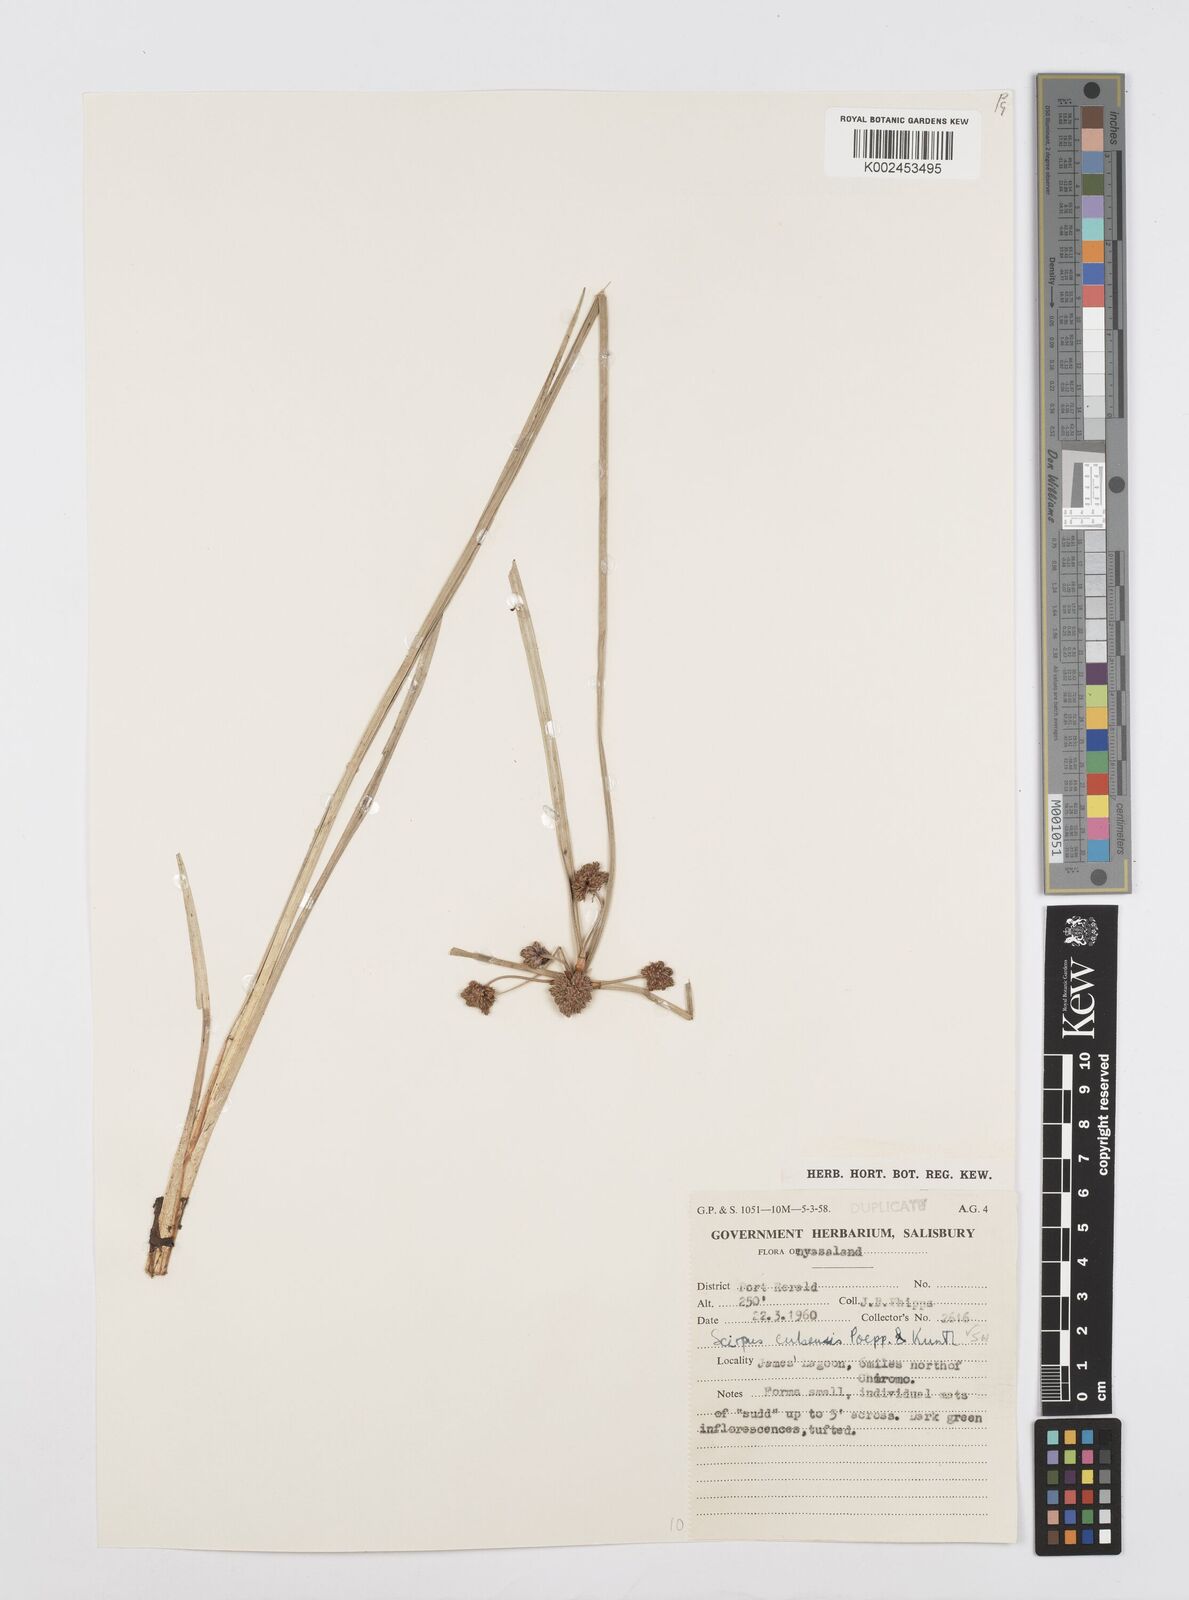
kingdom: Plantae
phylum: Tracheophyta
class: Liliopsida
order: Poales
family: Cyperaceae
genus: Cyperus
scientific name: Cyperus elegans
